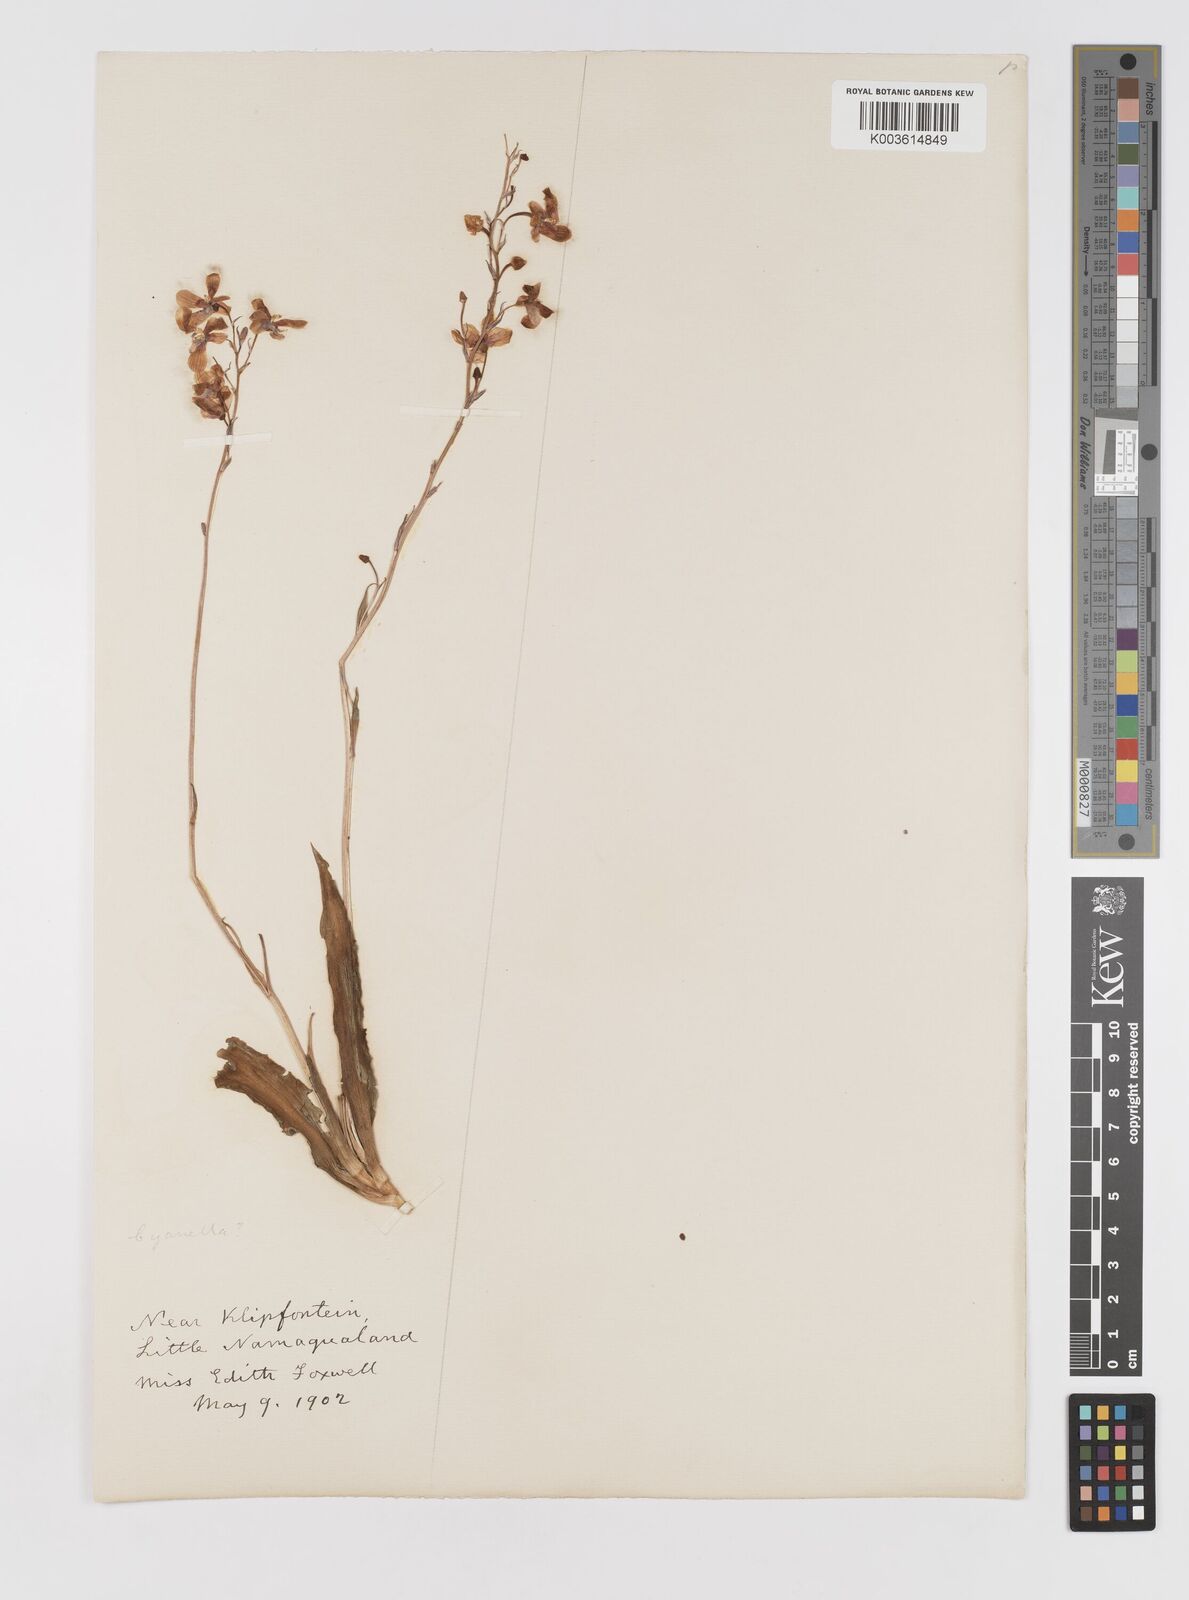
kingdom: Plantae
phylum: Tracheophyta
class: Liliopsida
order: Asparagales
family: Tecophilaeaceae
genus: Cyanella
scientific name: Cyanella
